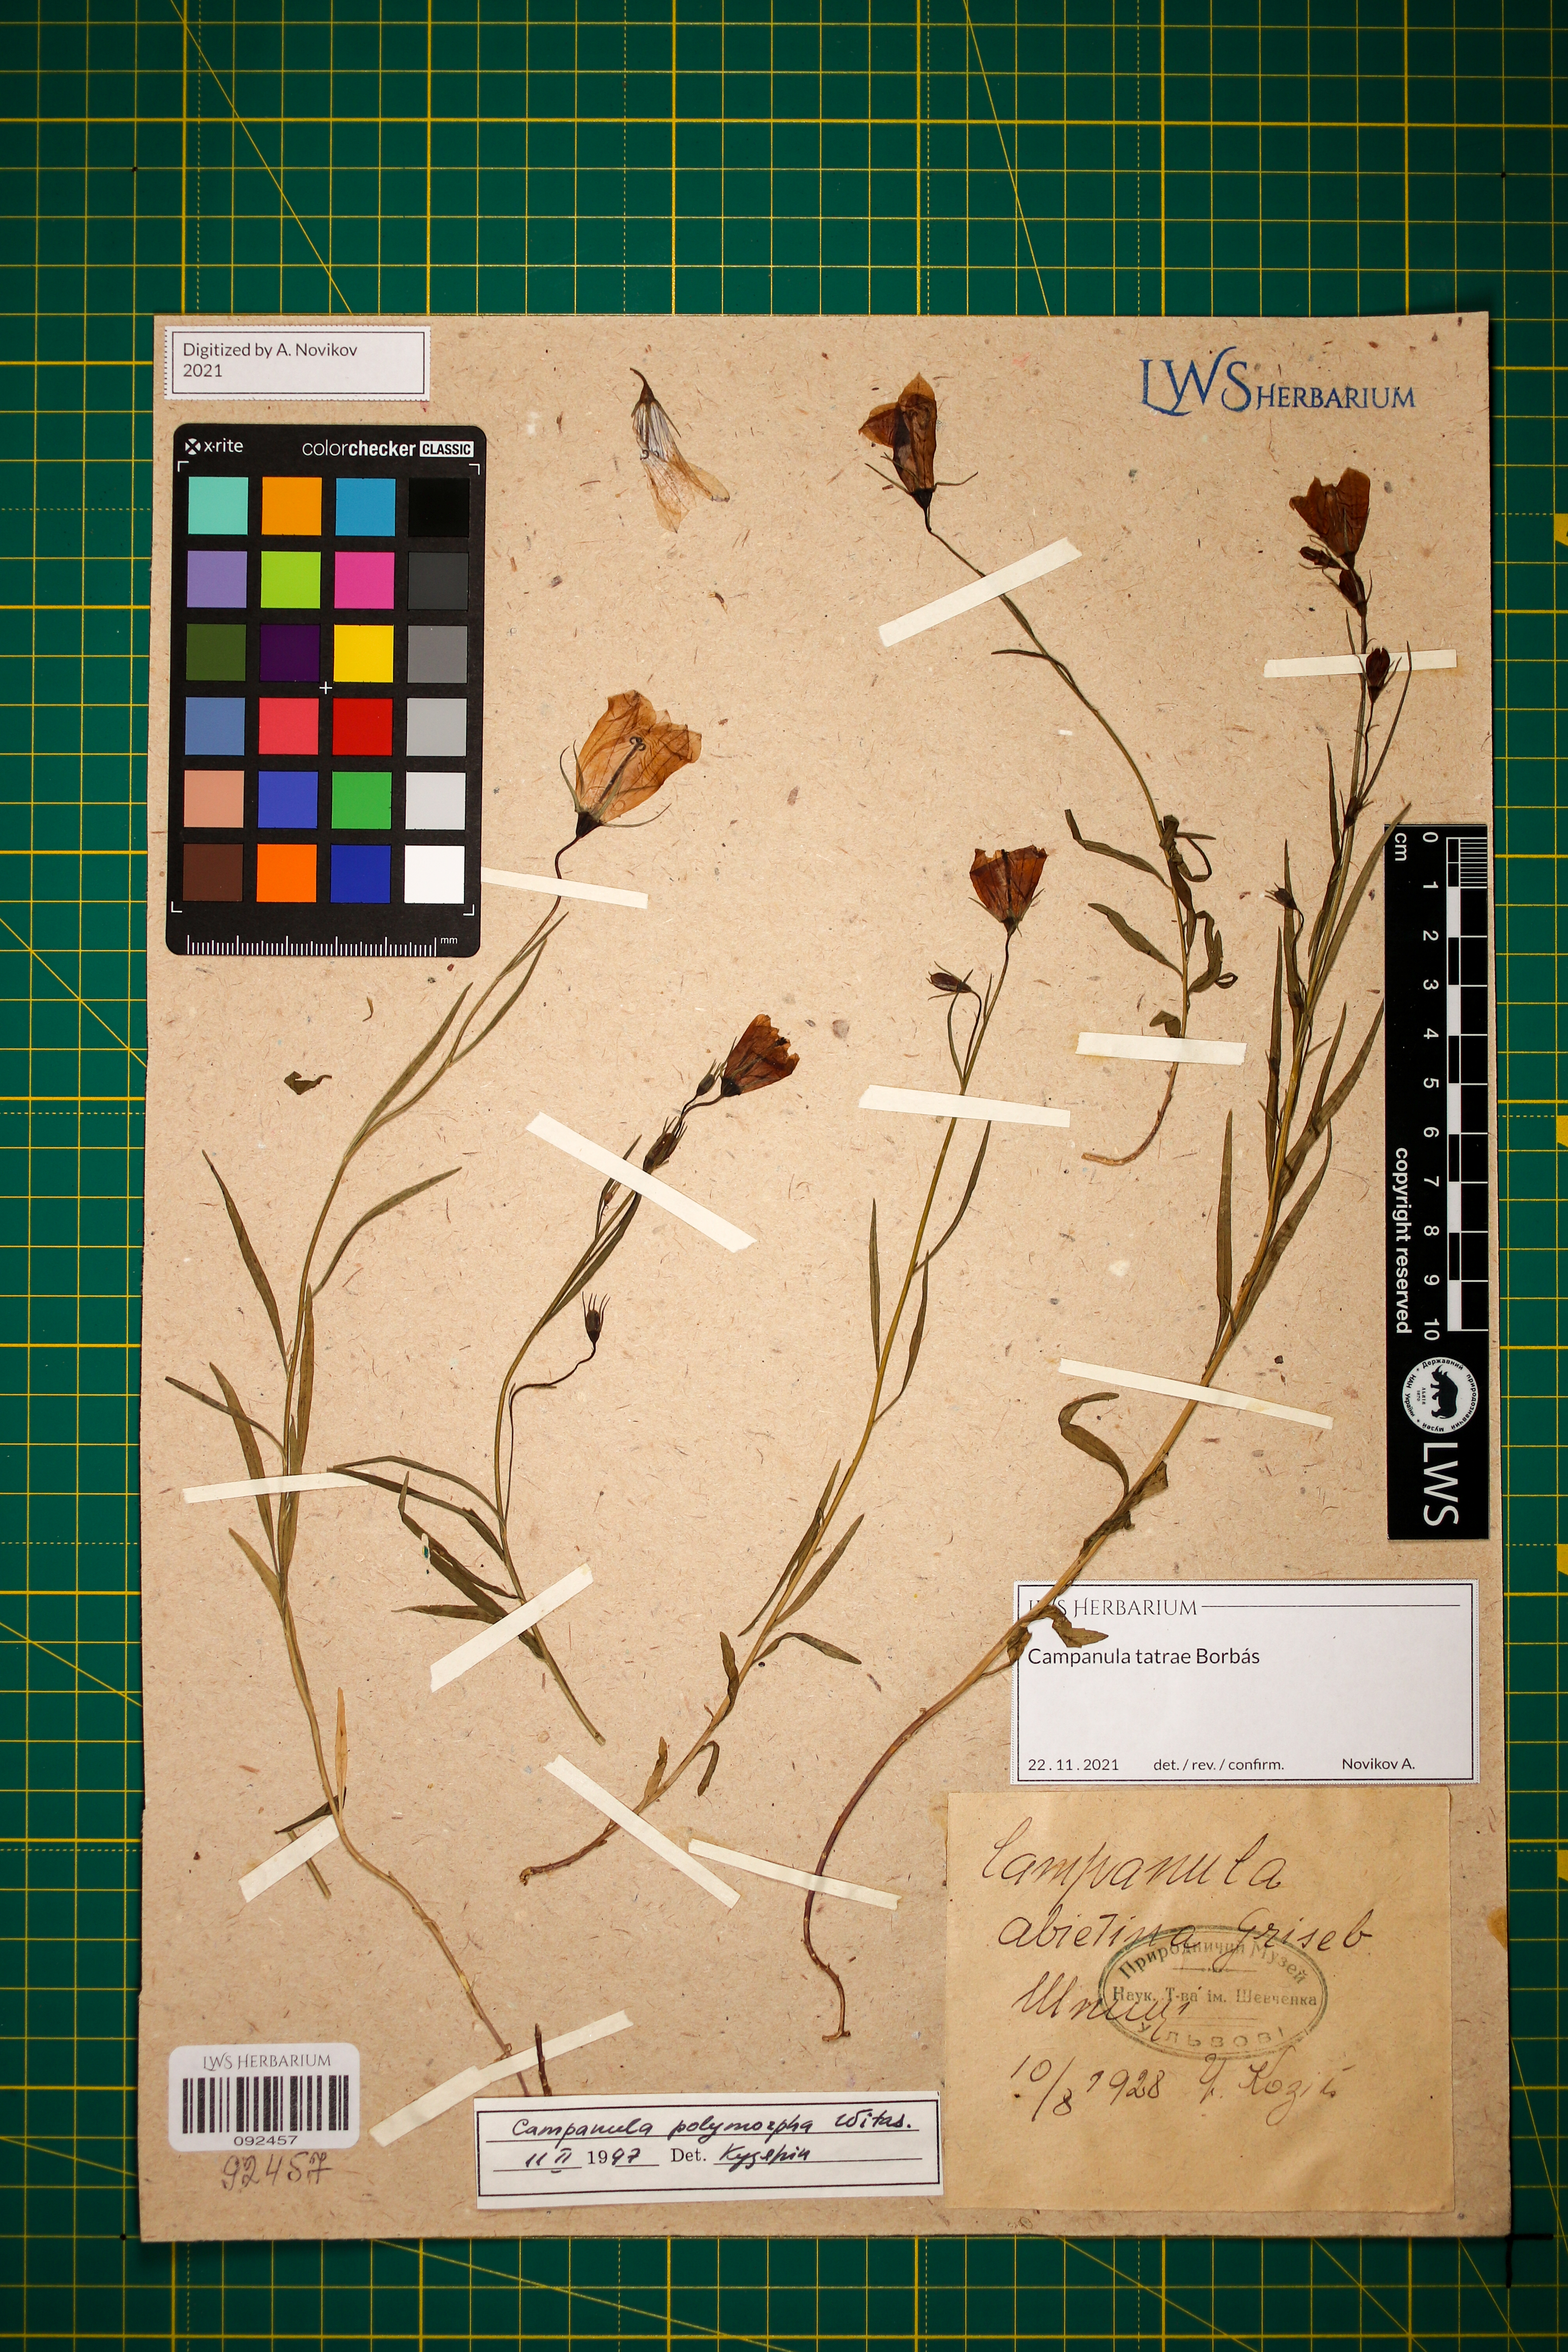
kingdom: Plantae
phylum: Tracheophyta
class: Magnoliopsida
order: Asterales
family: Campanulaceae
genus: Campanula
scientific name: Campanula tatrae
